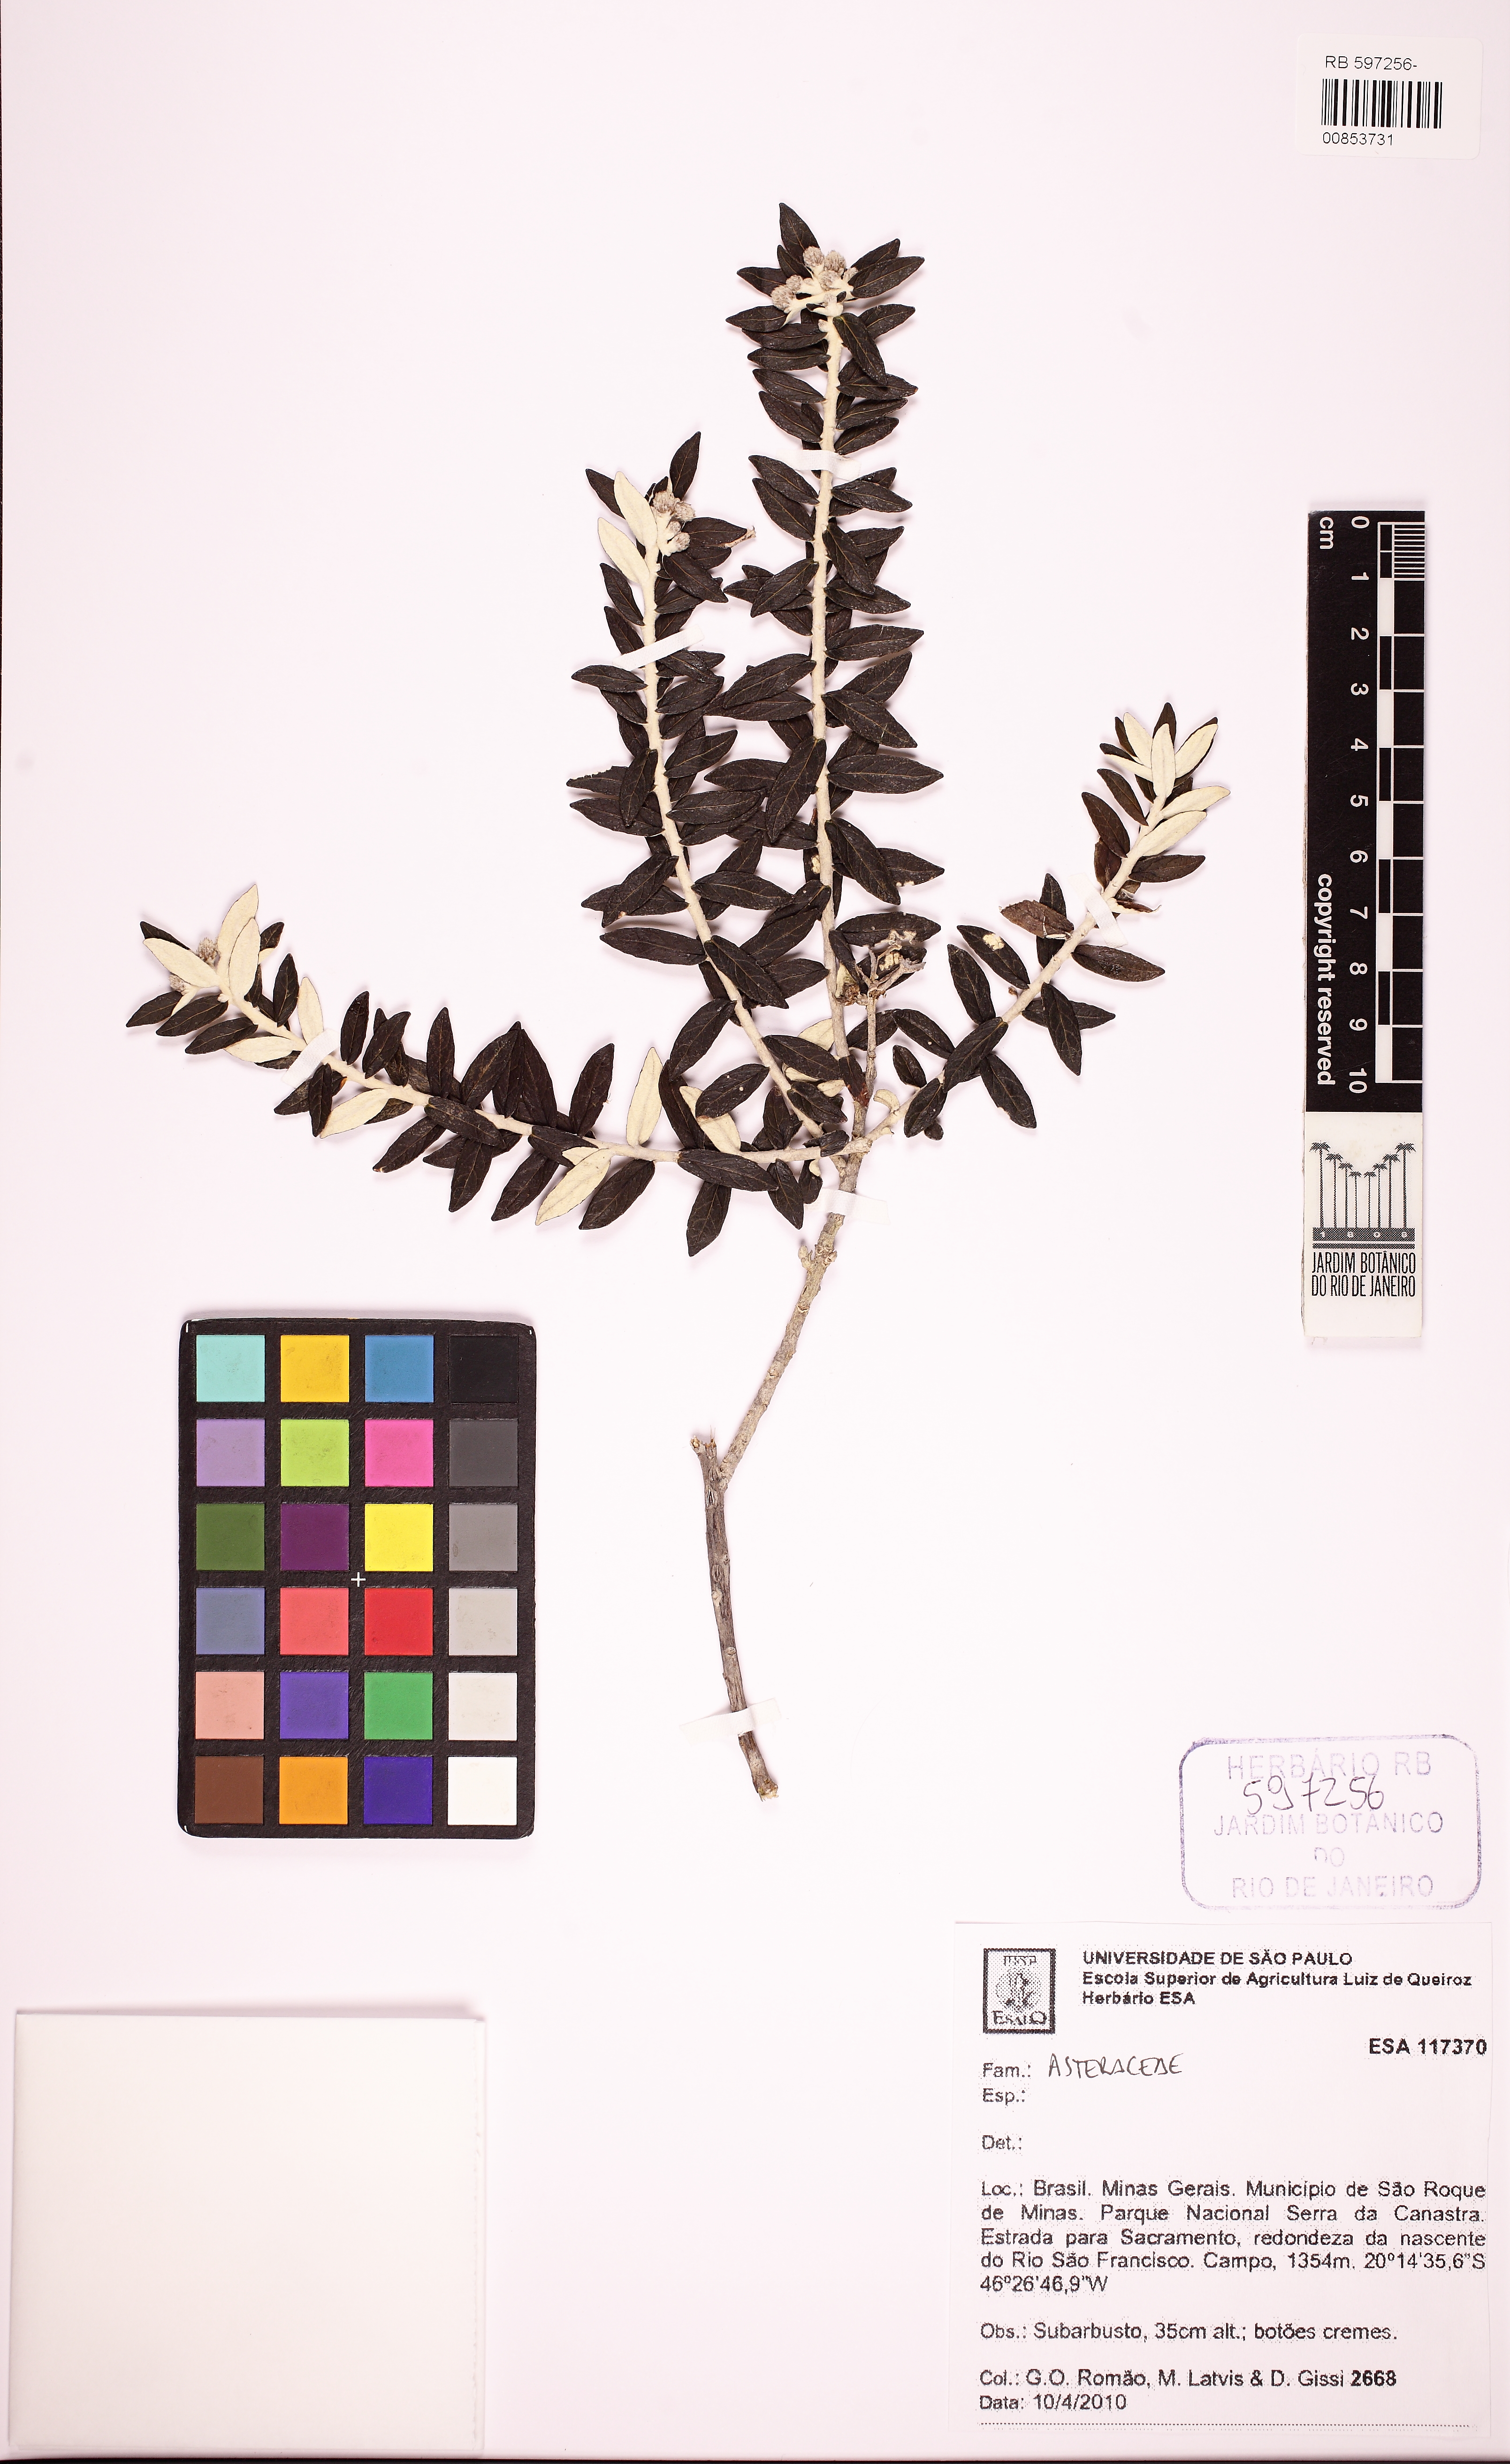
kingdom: Plantae
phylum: Tracheophyta
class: Magnoliopsida
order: Asterales
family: Asteraceae
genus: Chionolaena
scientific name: Chionolaena
